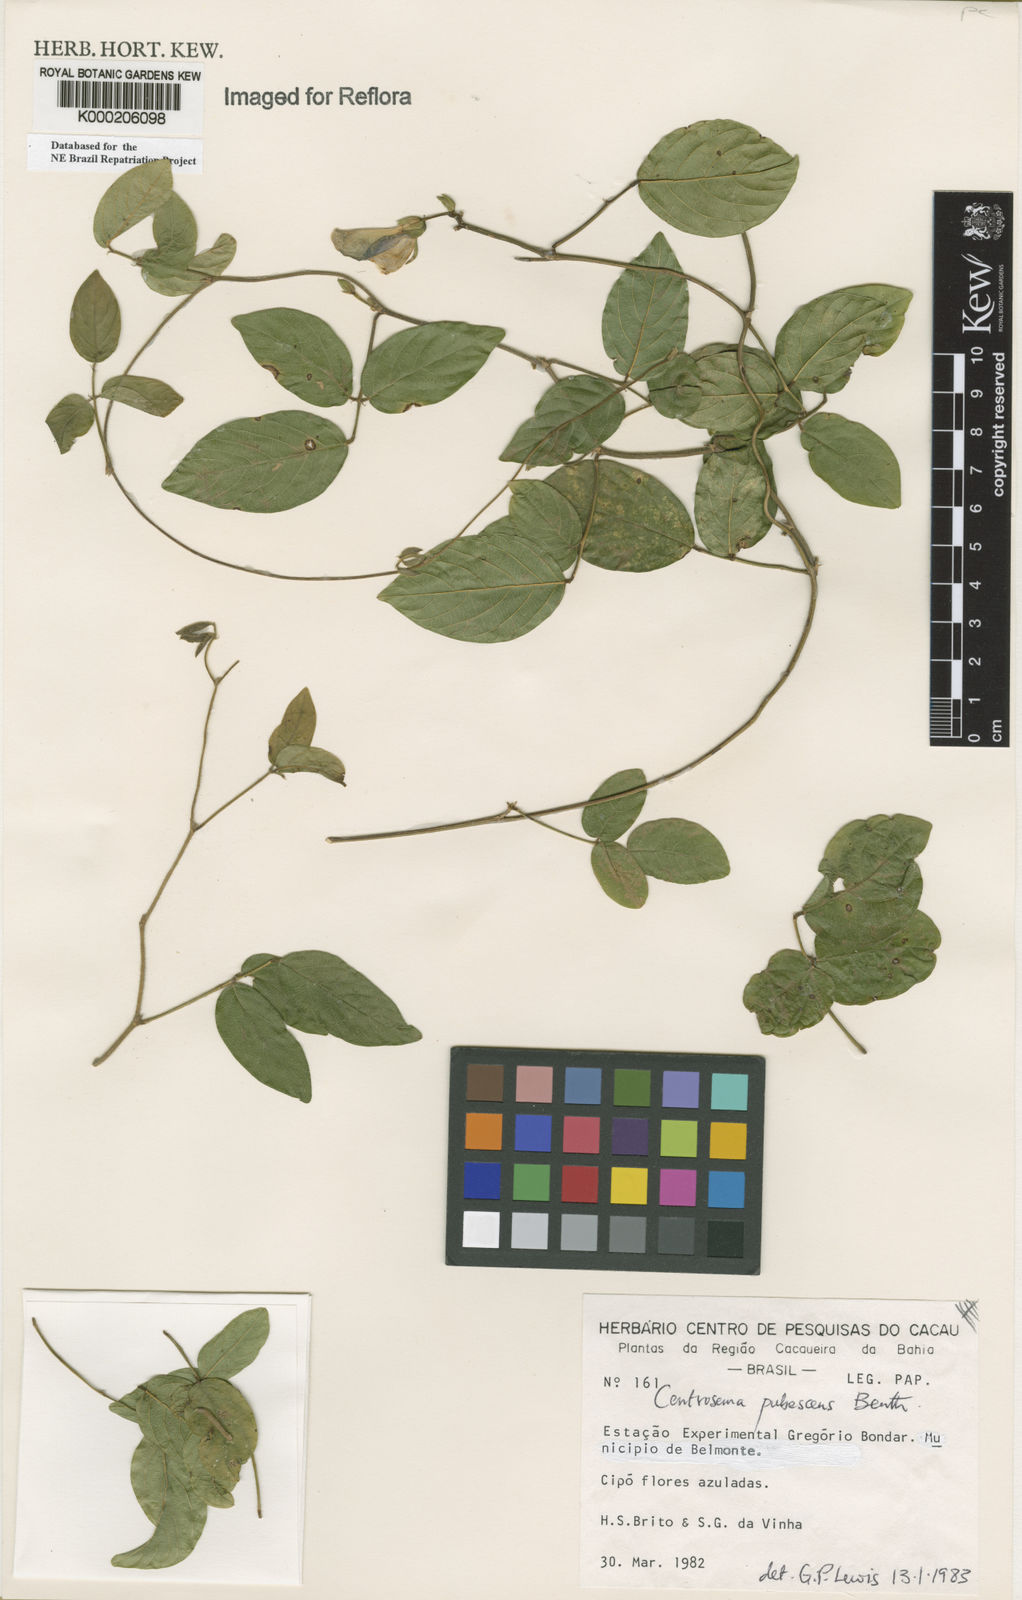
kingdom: Plantae
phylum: Tracheophyta
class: Magnoliopsida
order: Fabales
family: Fabaceae
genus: Centrosema
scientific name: Centrosema pubescens
